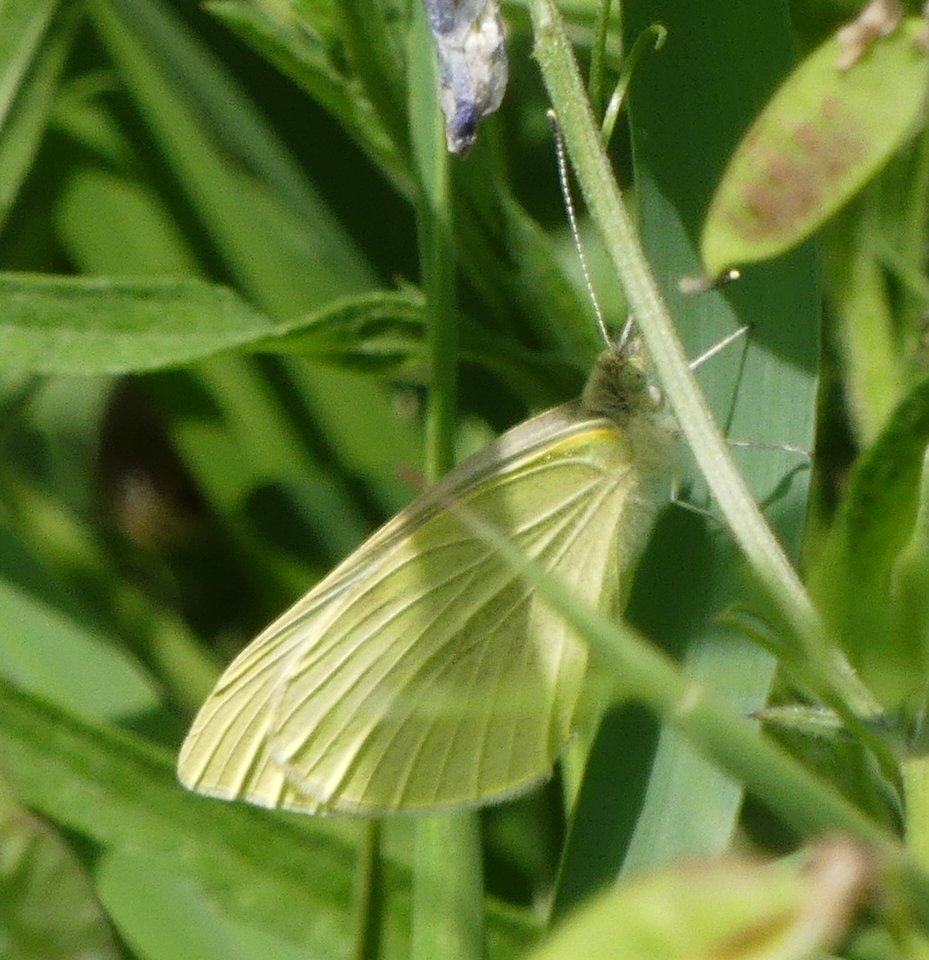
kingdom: Animalia
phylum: Arthropoda
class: Insecta
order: Lepidoptera
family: Pieridae
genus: Pieris
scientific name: Pieris rapae
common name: Cabbage White
